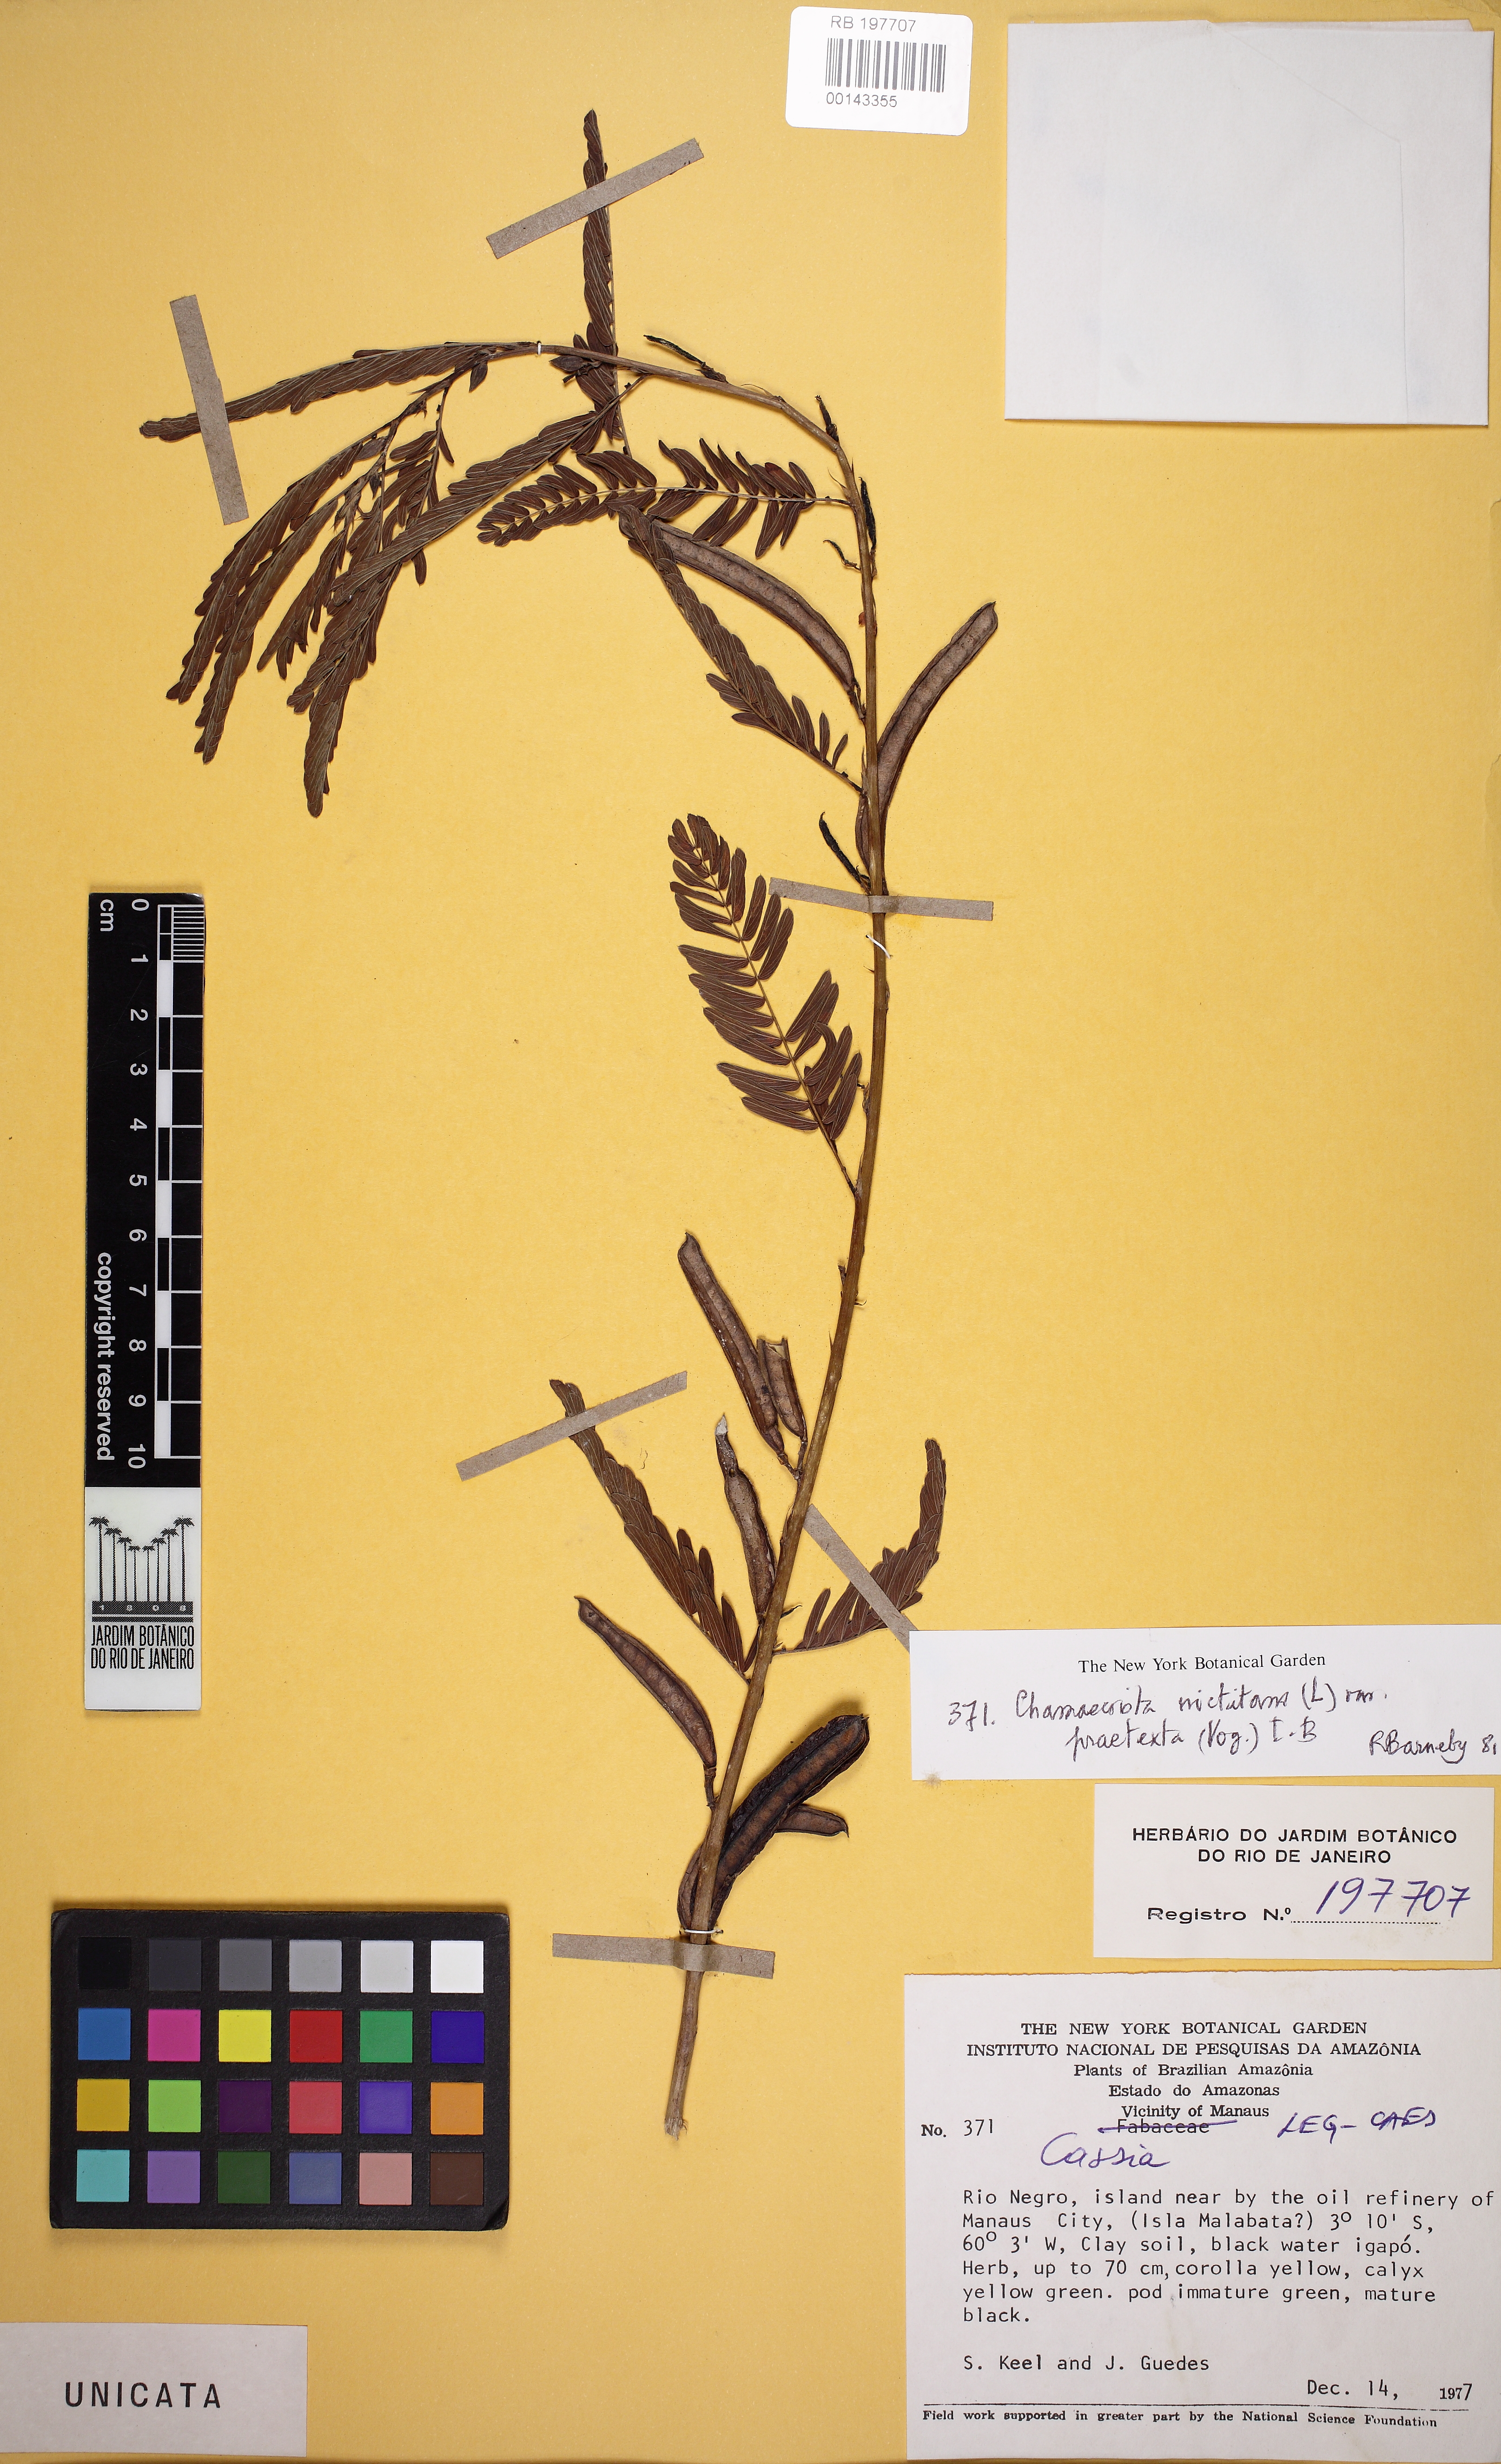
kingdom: Plantae
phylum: Tracheophyta
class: Magnoliopsida
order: Fabales
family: Fabaceae
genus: Chamaecrista
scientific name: Chamaecrista fasciculata
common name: Golden cassia
